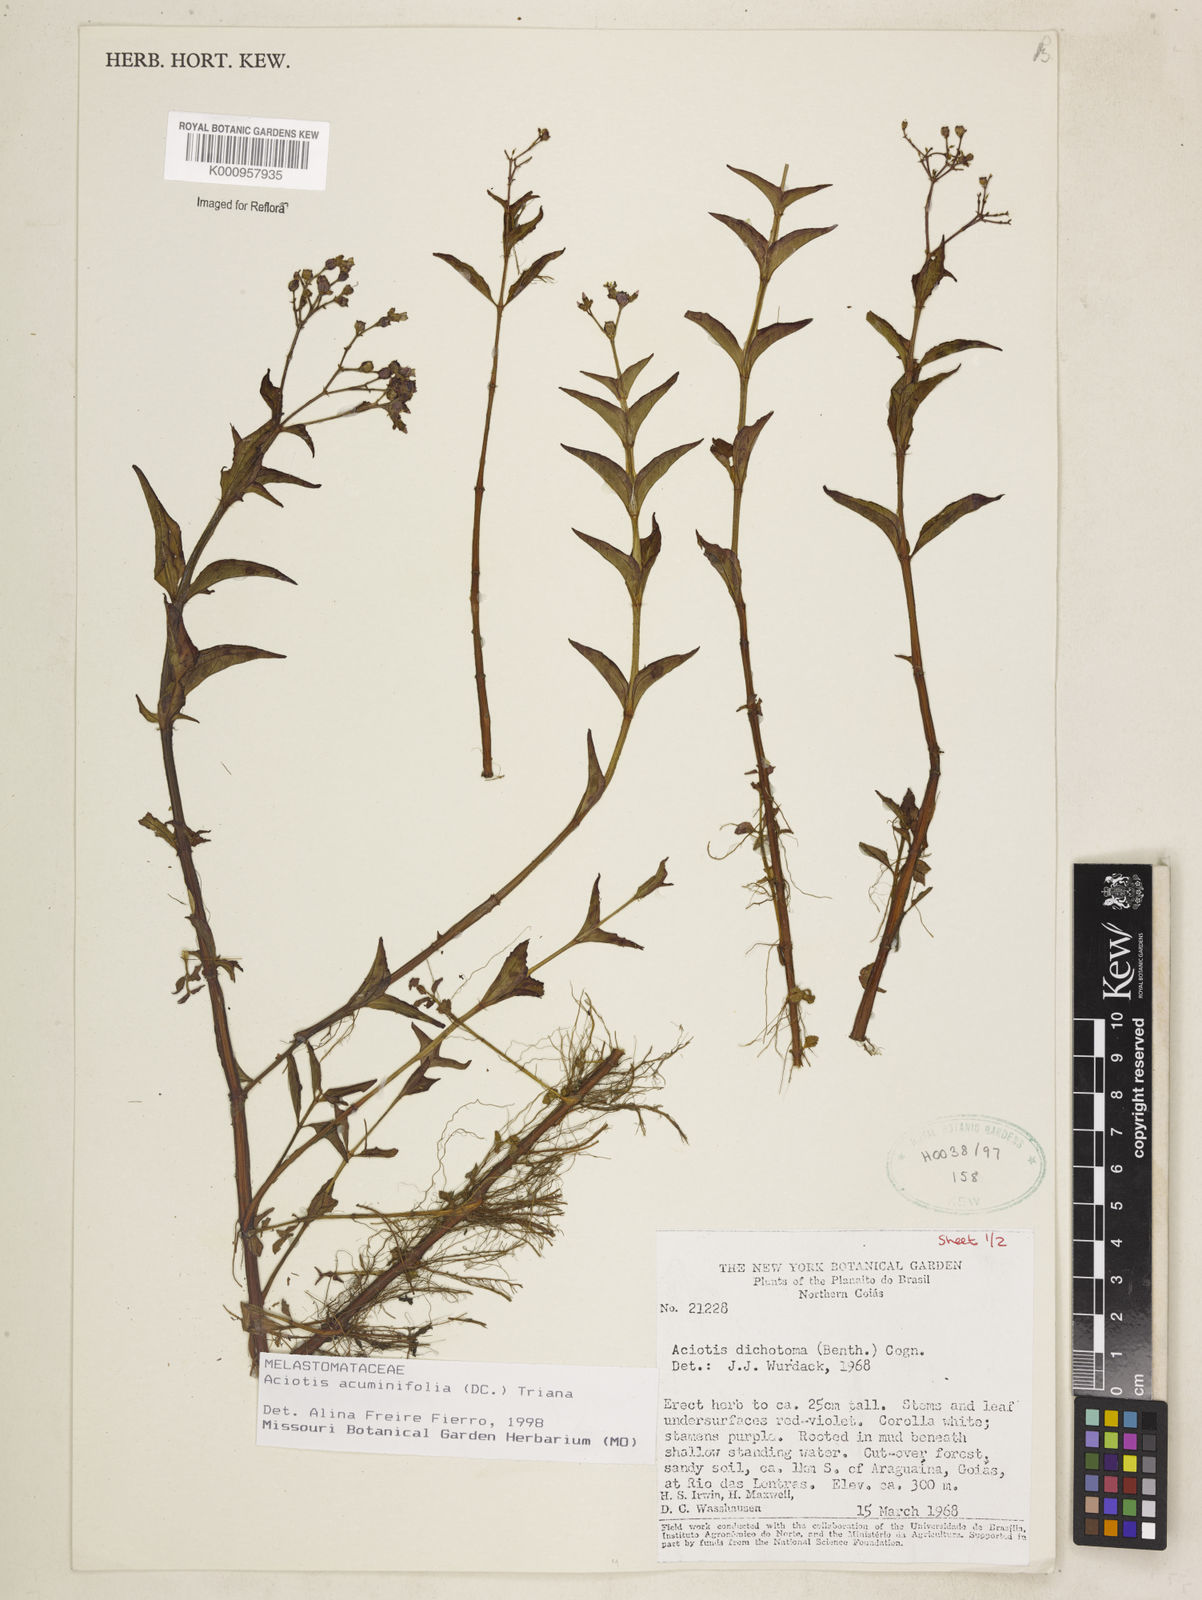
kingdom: Plantae
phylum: Tracheophyta
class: Magnoliopsida
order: Myrtales
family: Melastomataceae
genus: Aciotis
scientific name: Aciotis acuminifolia
